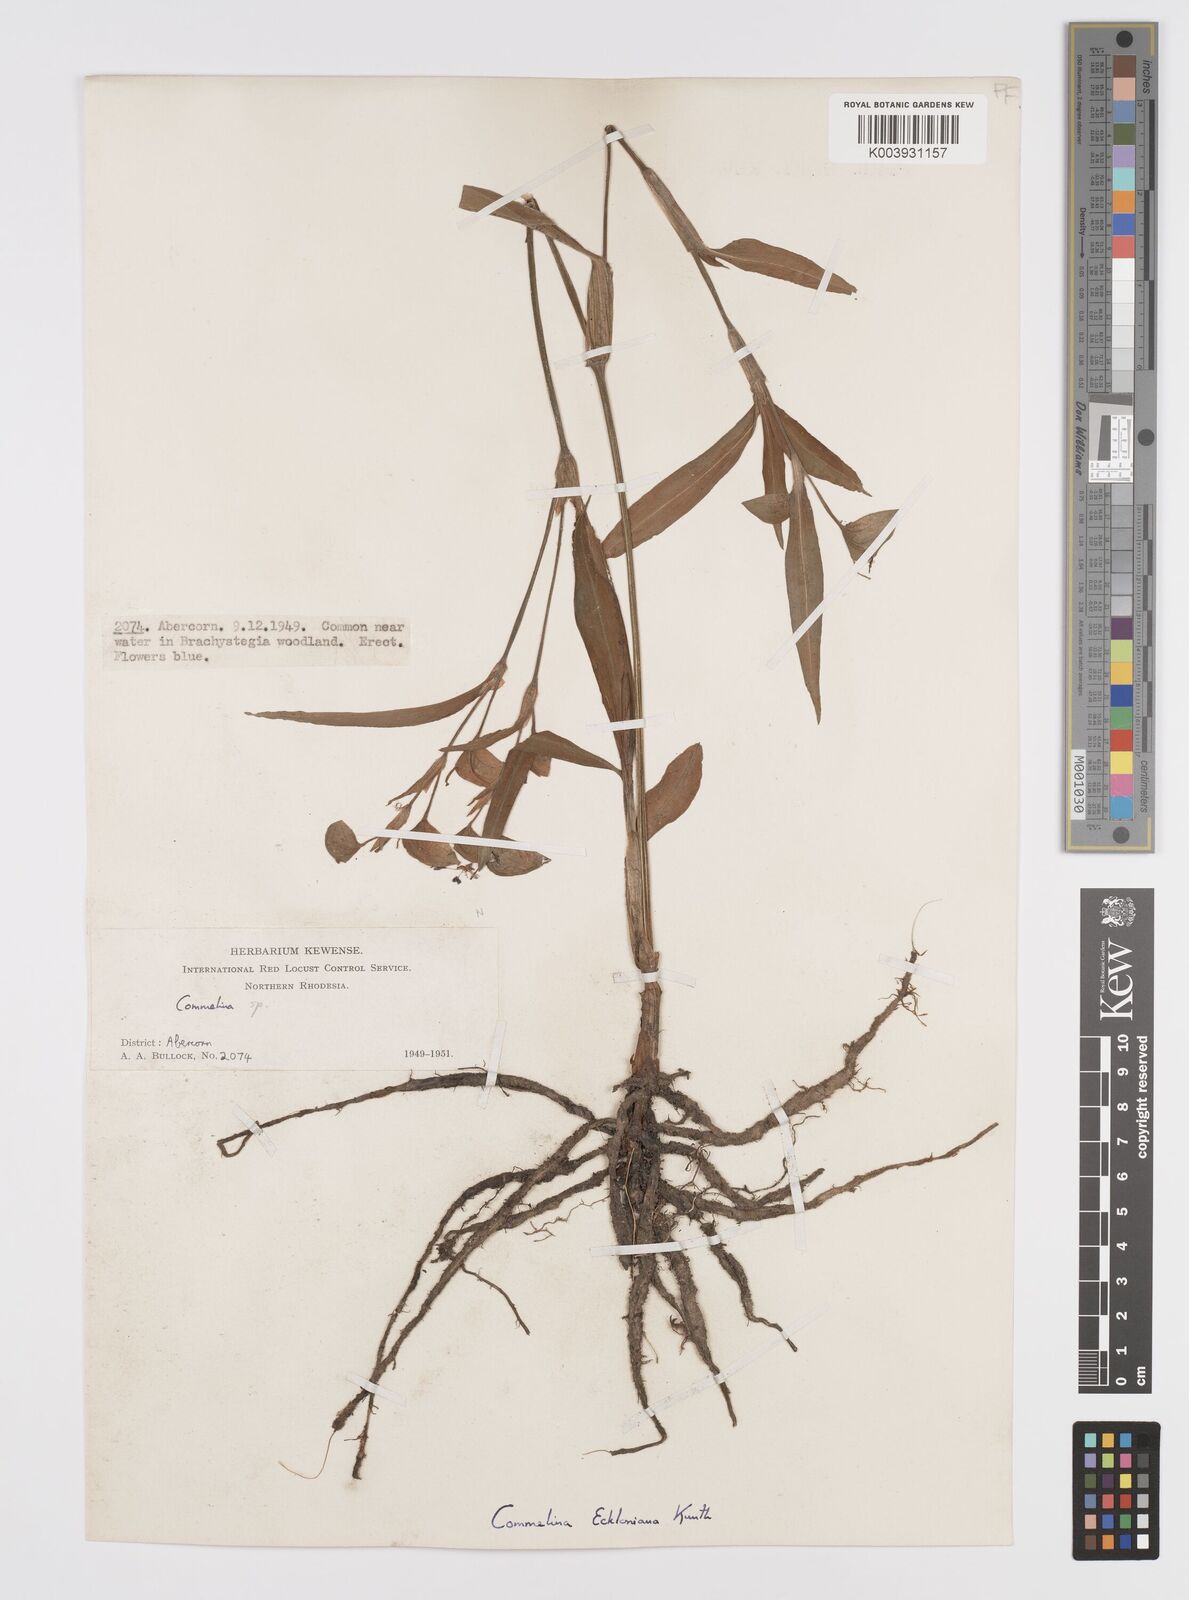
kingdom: Plantae
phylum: Tracheophyta
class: Liliopsida
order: Commelinales
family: Commelinaceae
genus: Commelina
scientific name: Commelina eckloniana
